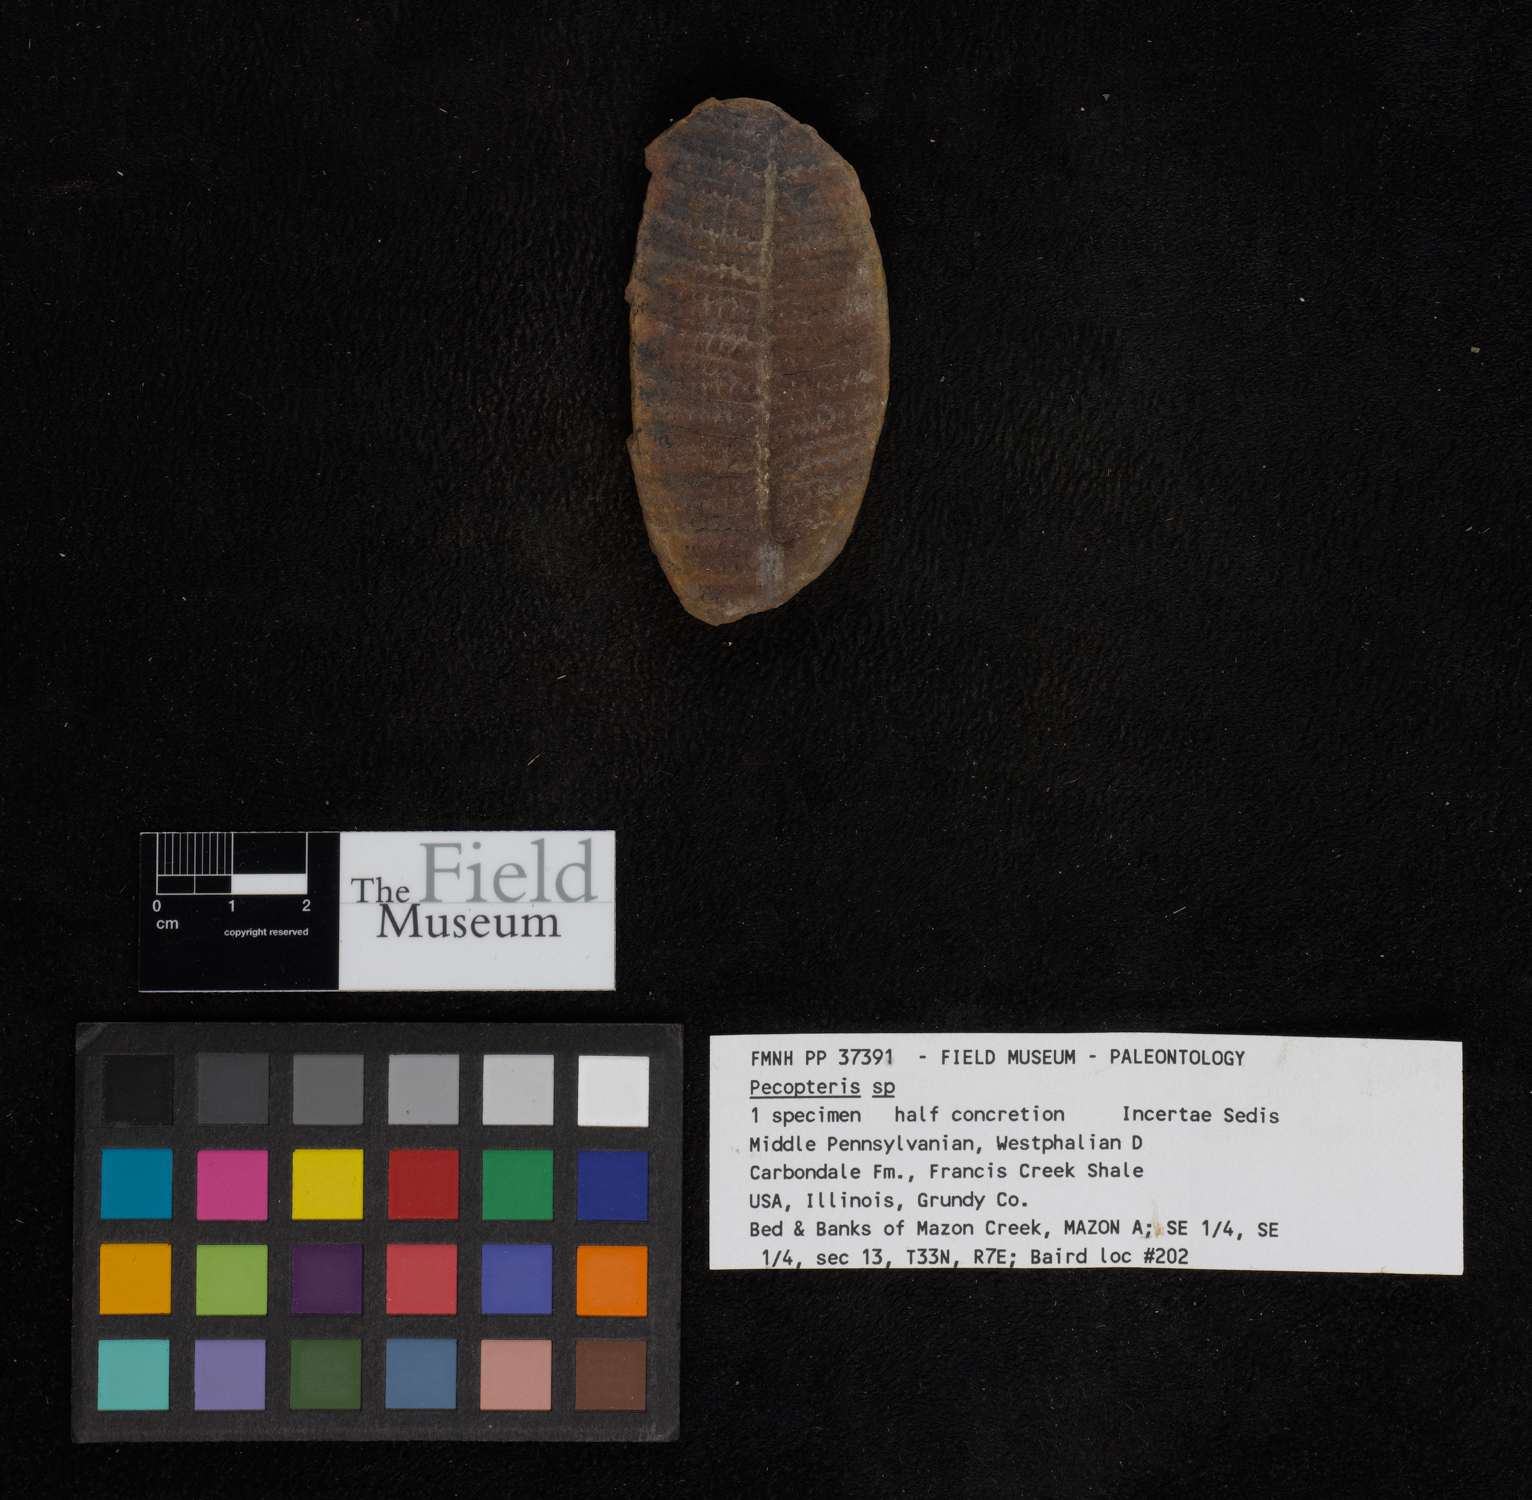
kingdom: Plantae
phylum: Tracheophyta
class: Polypodiopsida
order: Marattiales
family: Asterothecaceae
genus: Pecopteris
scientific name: Pecopteris
